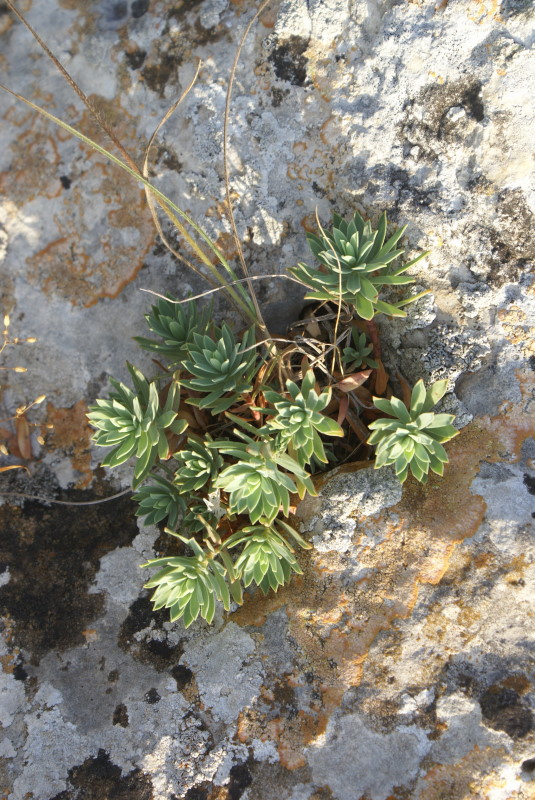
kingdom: Plantae
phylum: Tracheophyta
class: Magnoliopsida
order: Malpighiales
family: Euphorbiaceae
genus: Euphorbia
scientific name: Euphorbia petrophila
